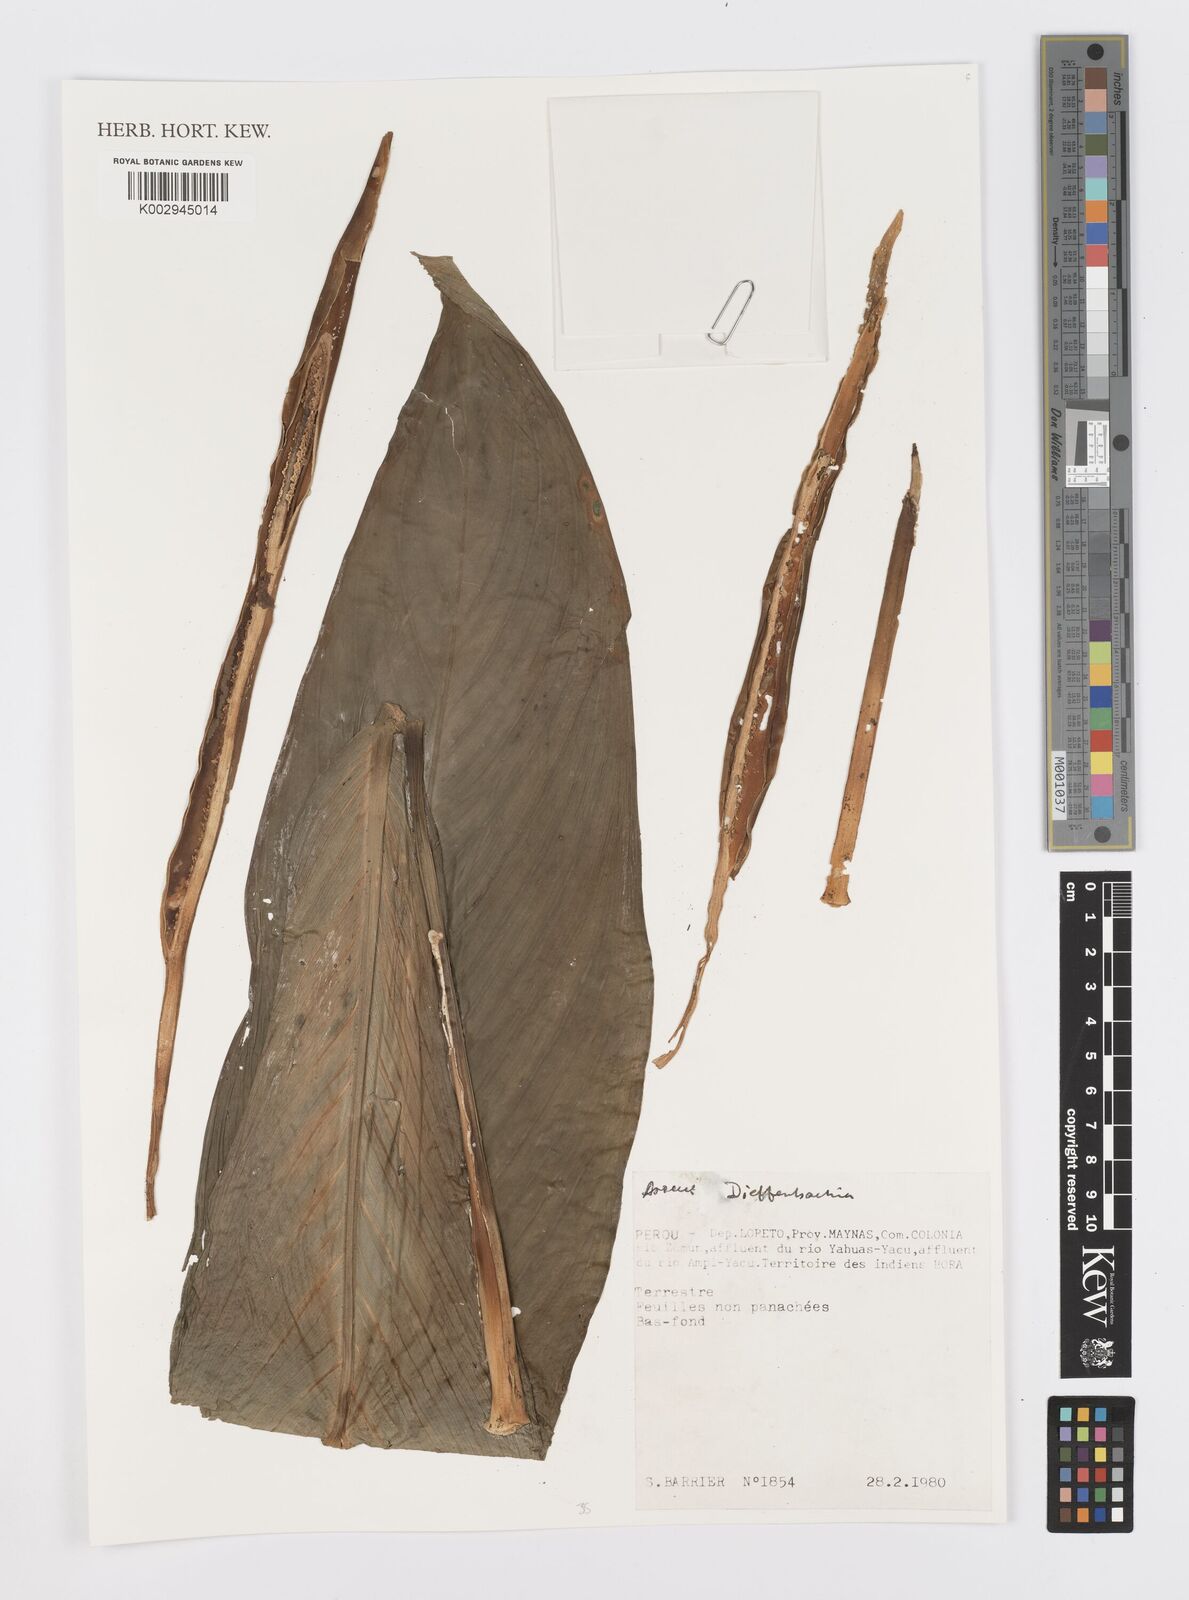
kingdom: Plantae
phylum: Tracheophyta
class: Liliopsida
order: Alismatales
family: Araceae
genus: Dieffenbachia
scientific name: Dieffenbachia
